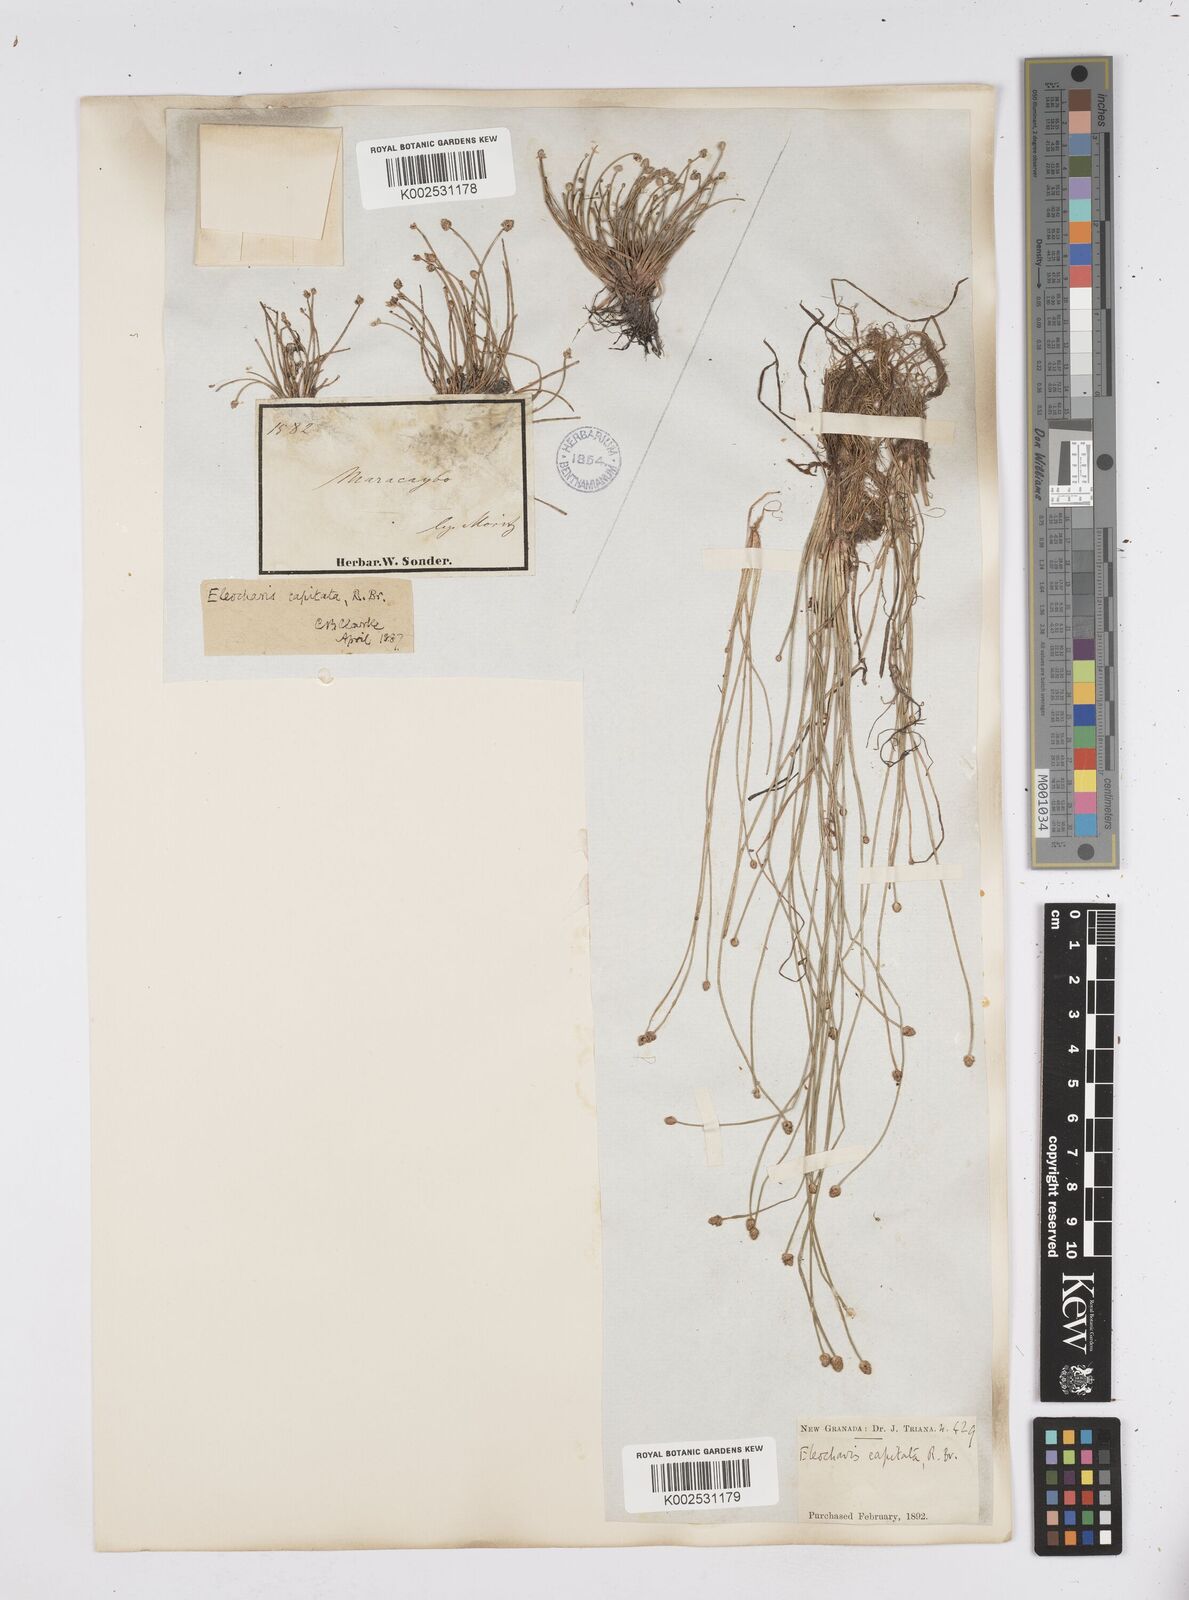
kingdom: Plantae
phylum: Tracheophyta
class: Liliopsida
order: Poales
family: Cyperaceae
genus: Eleocharis
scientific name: Eleocharis geniculata
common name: Canada spikesedge
